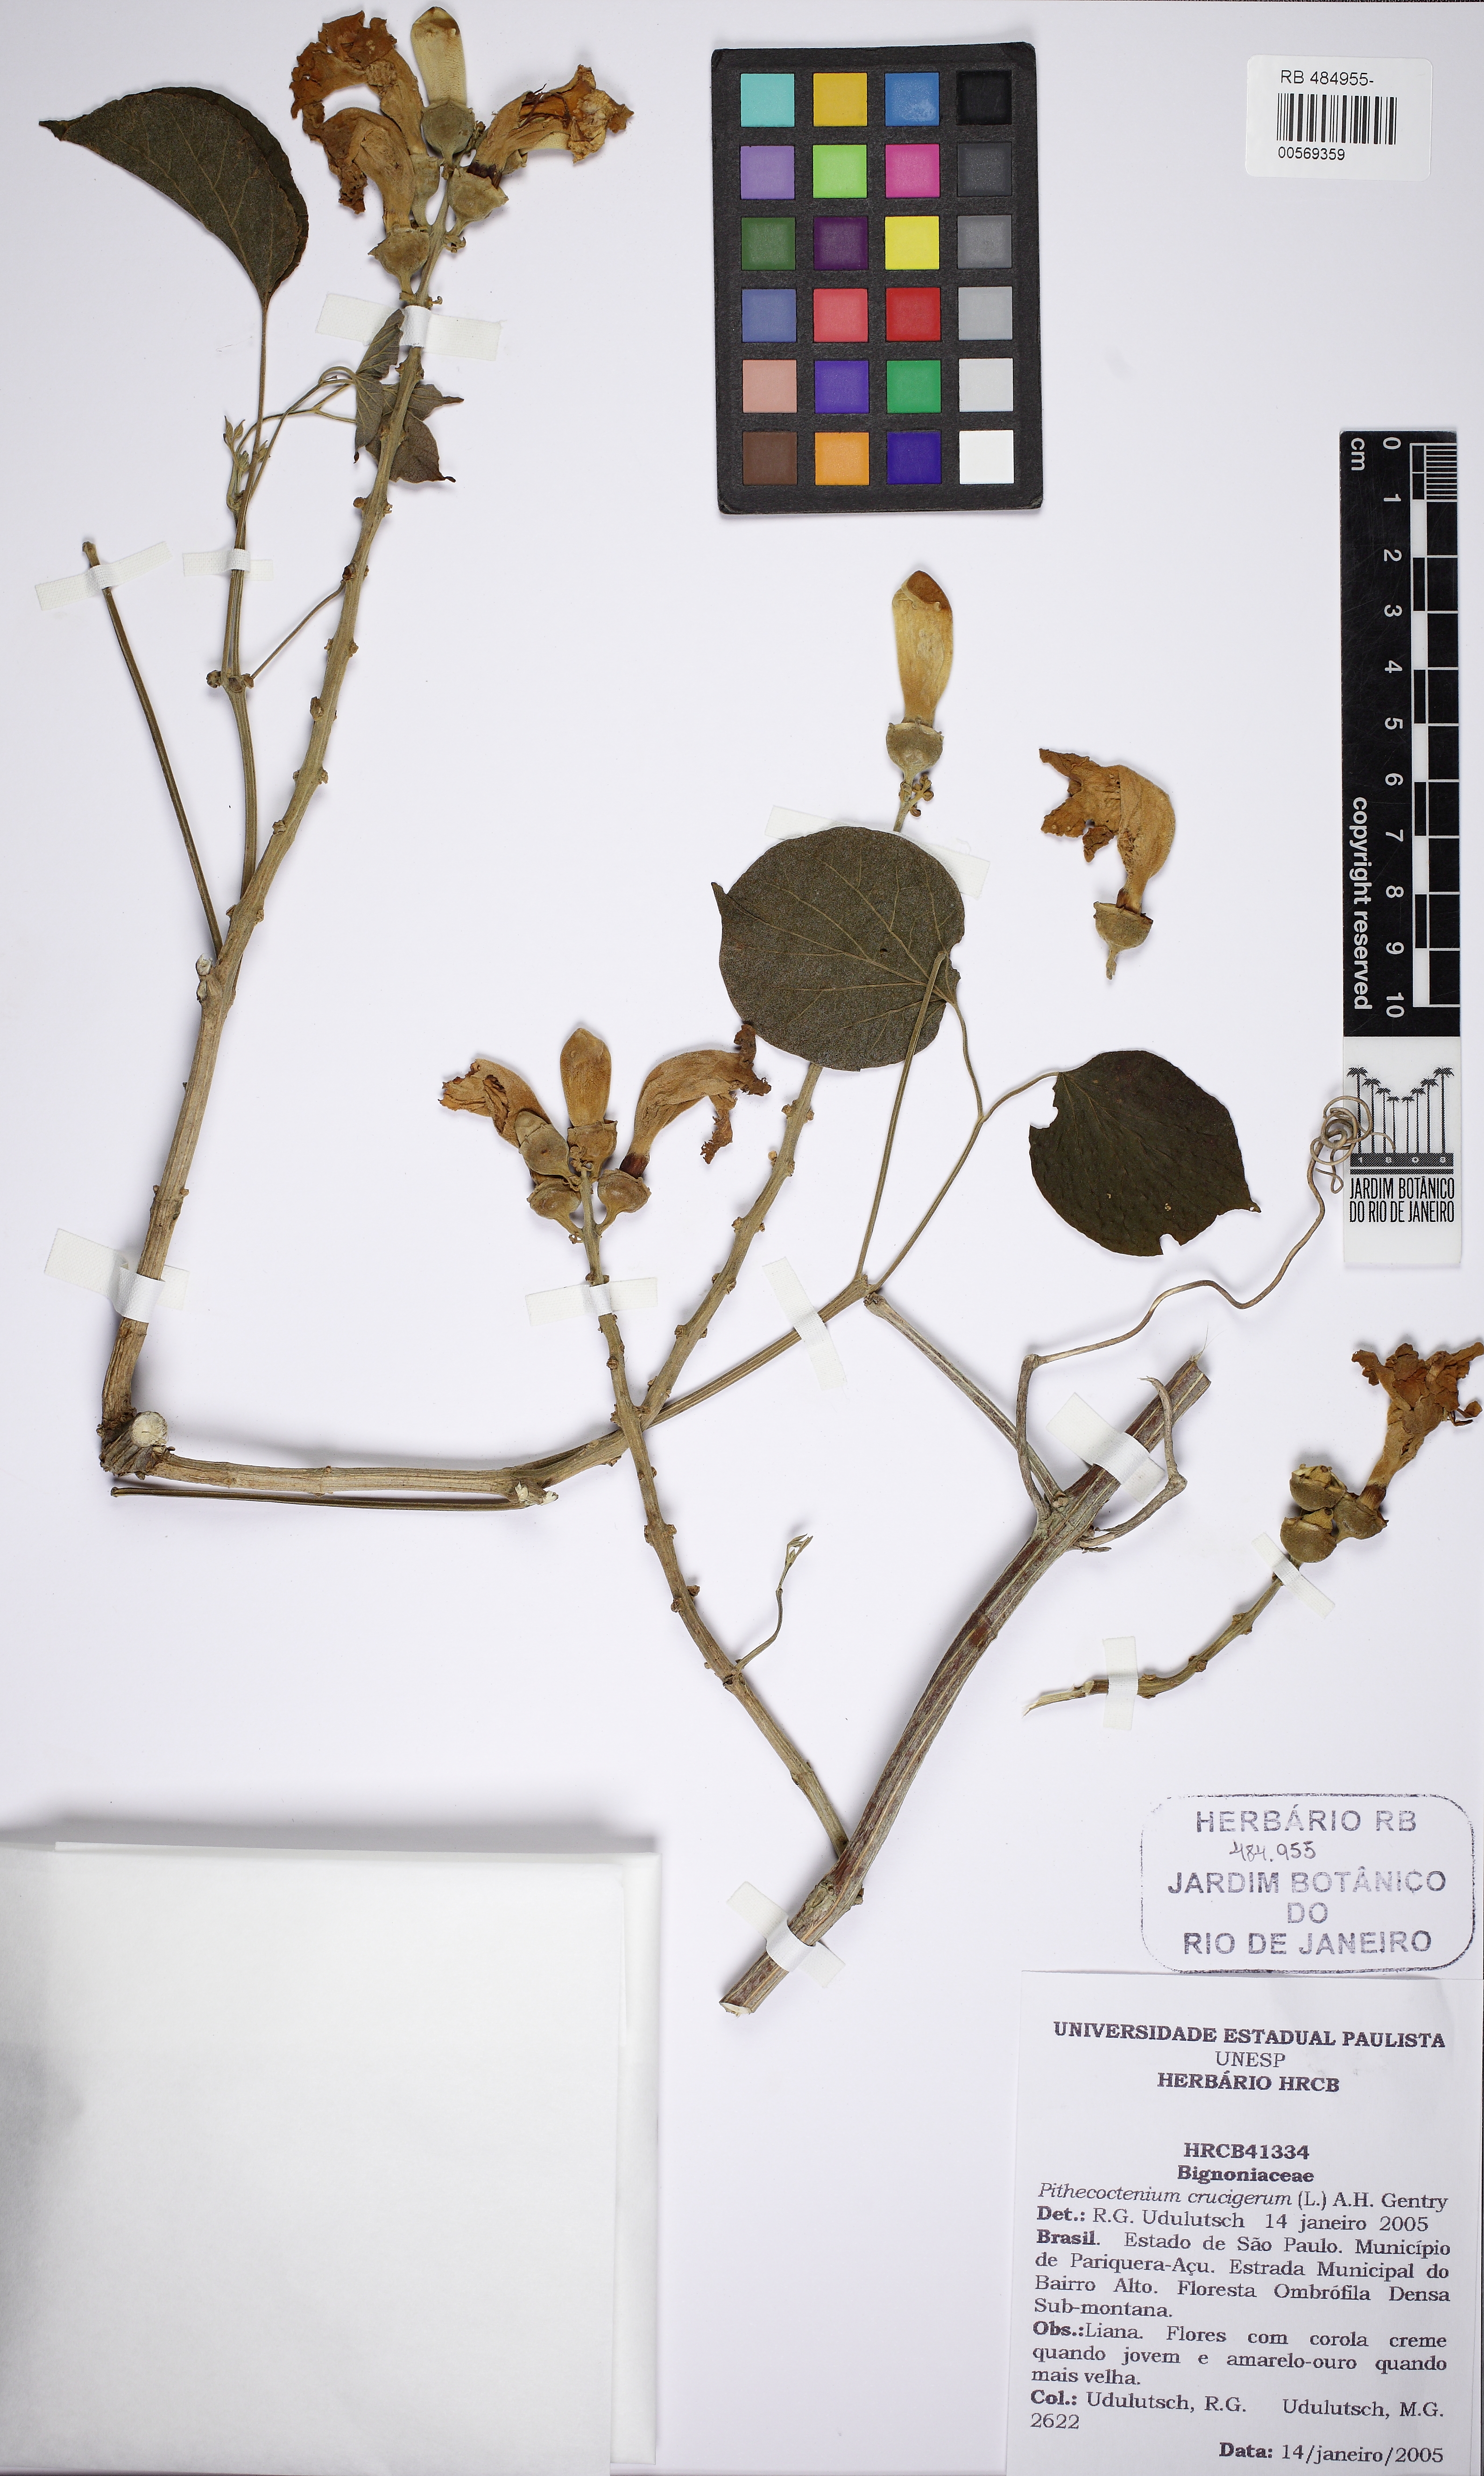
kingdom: Plantae
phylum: Tracheophyta
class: Magnoliopsida
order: Lamiales
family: Bignoniaceae
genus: Amphilophium
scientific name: Amphilophium crucigerum
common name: Monkey comb
